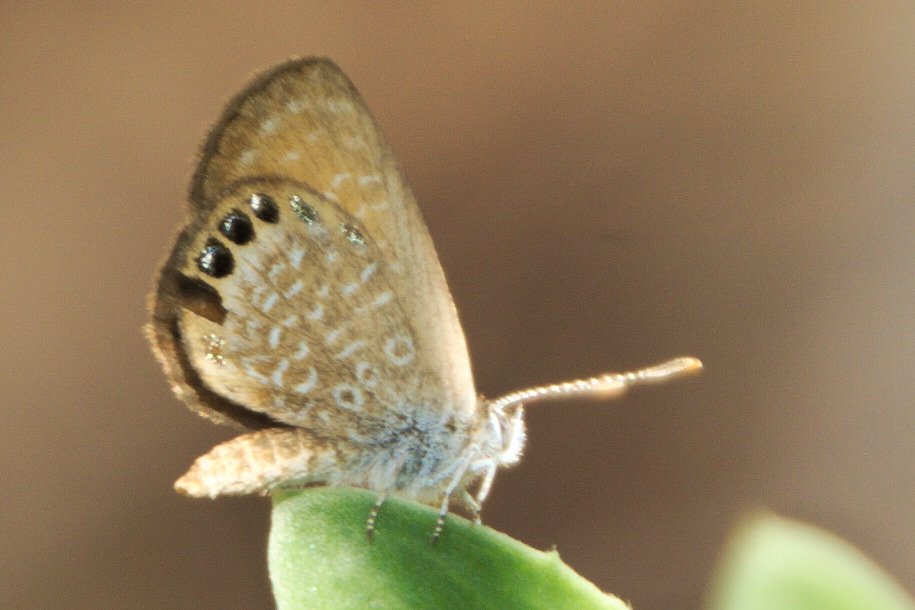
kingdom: Animalia
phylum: Arthropoda
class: Insecta
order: Lepidoptera
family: Lycaenidae
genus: Brephidium
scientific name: Brephidium isophthalma
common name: Eastern Pygmy-Blue
